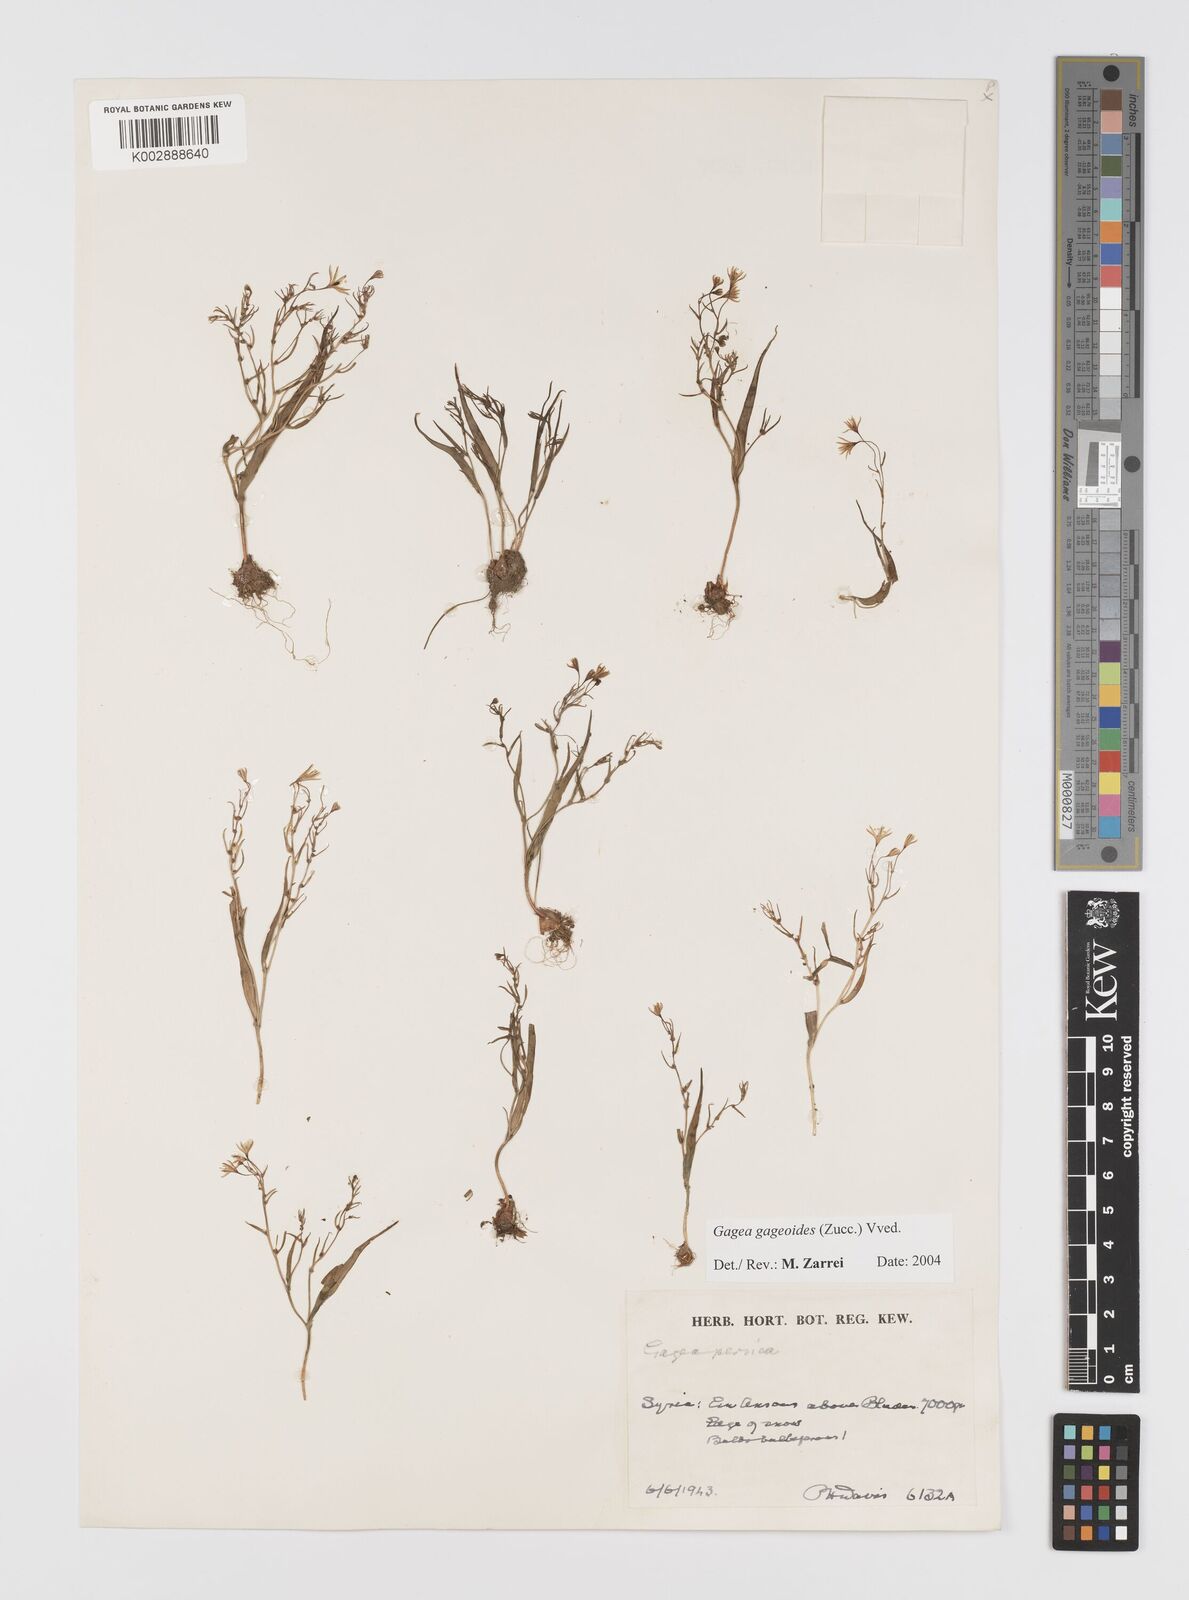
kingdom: Plantae
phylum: Tracheophyta
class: Liliopsida
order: Liliales
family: Liliaceae
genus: Gagea
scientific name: Gagea gageoides
